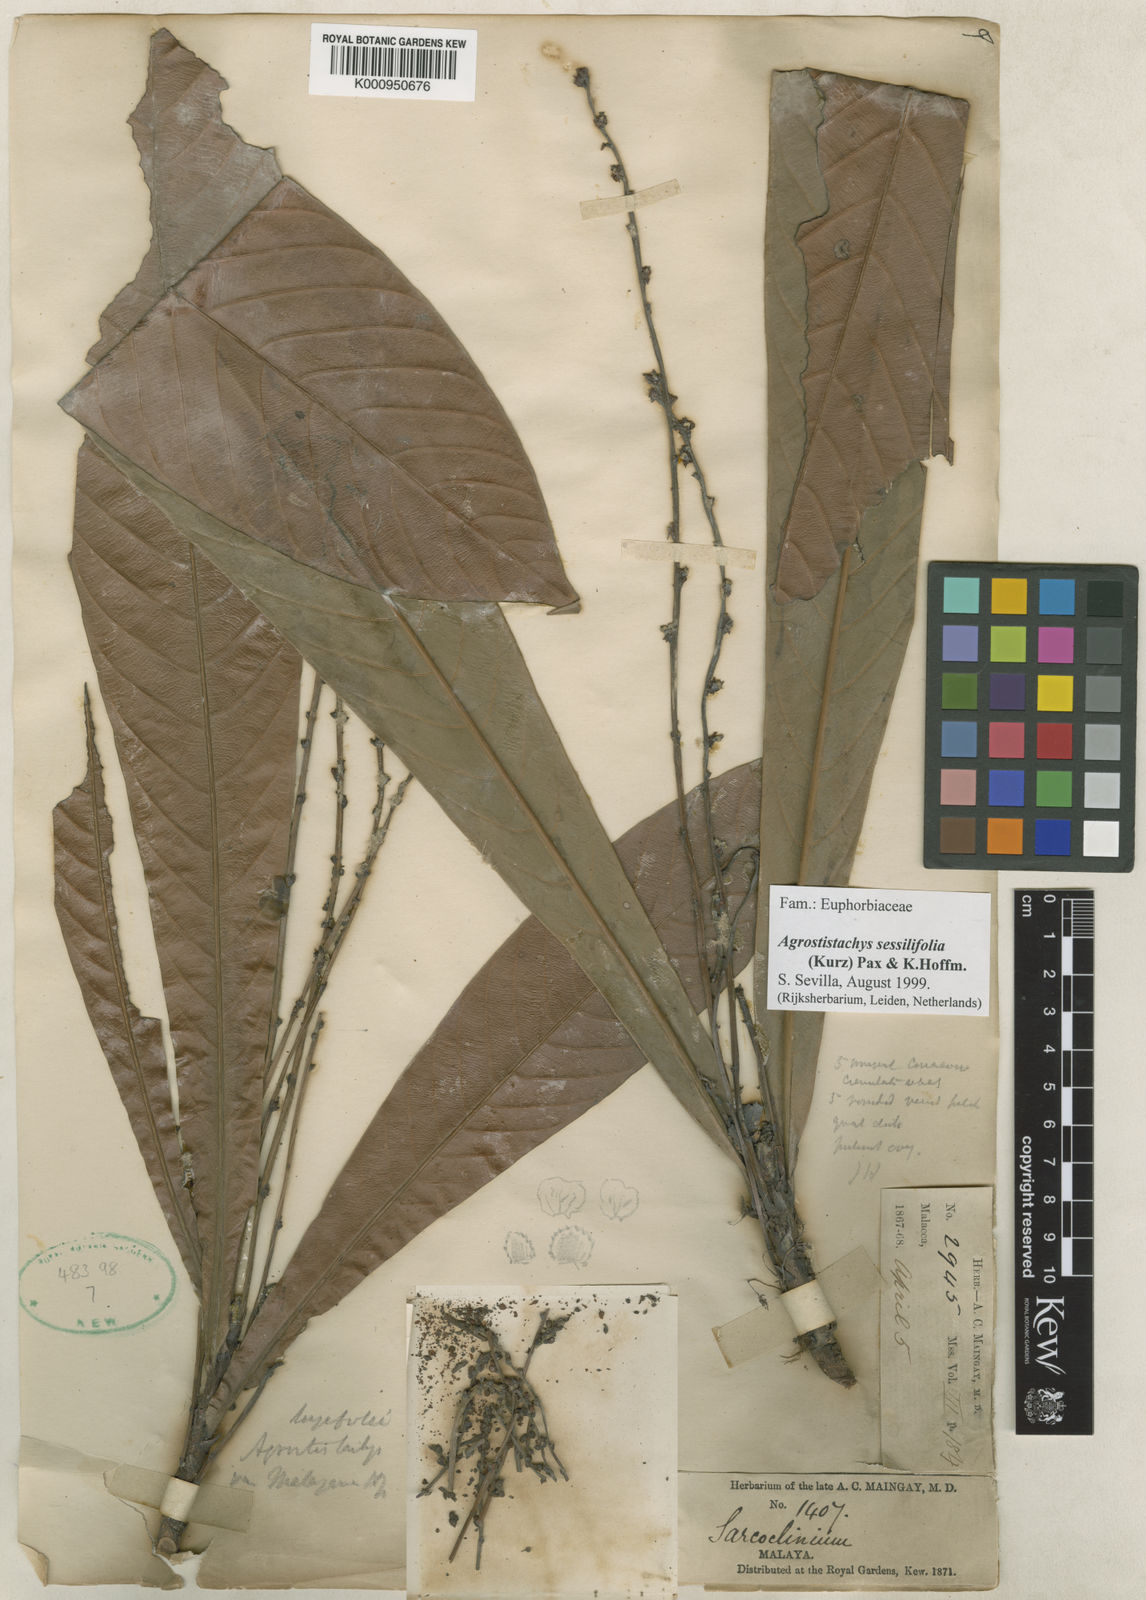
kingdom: Plantae
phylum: Tracheophyta
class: Magnoliopsida
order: Malpighiales
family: Euphorbiaceae
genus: Agrostistachys
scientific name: Agrostistachys sessilifolia
